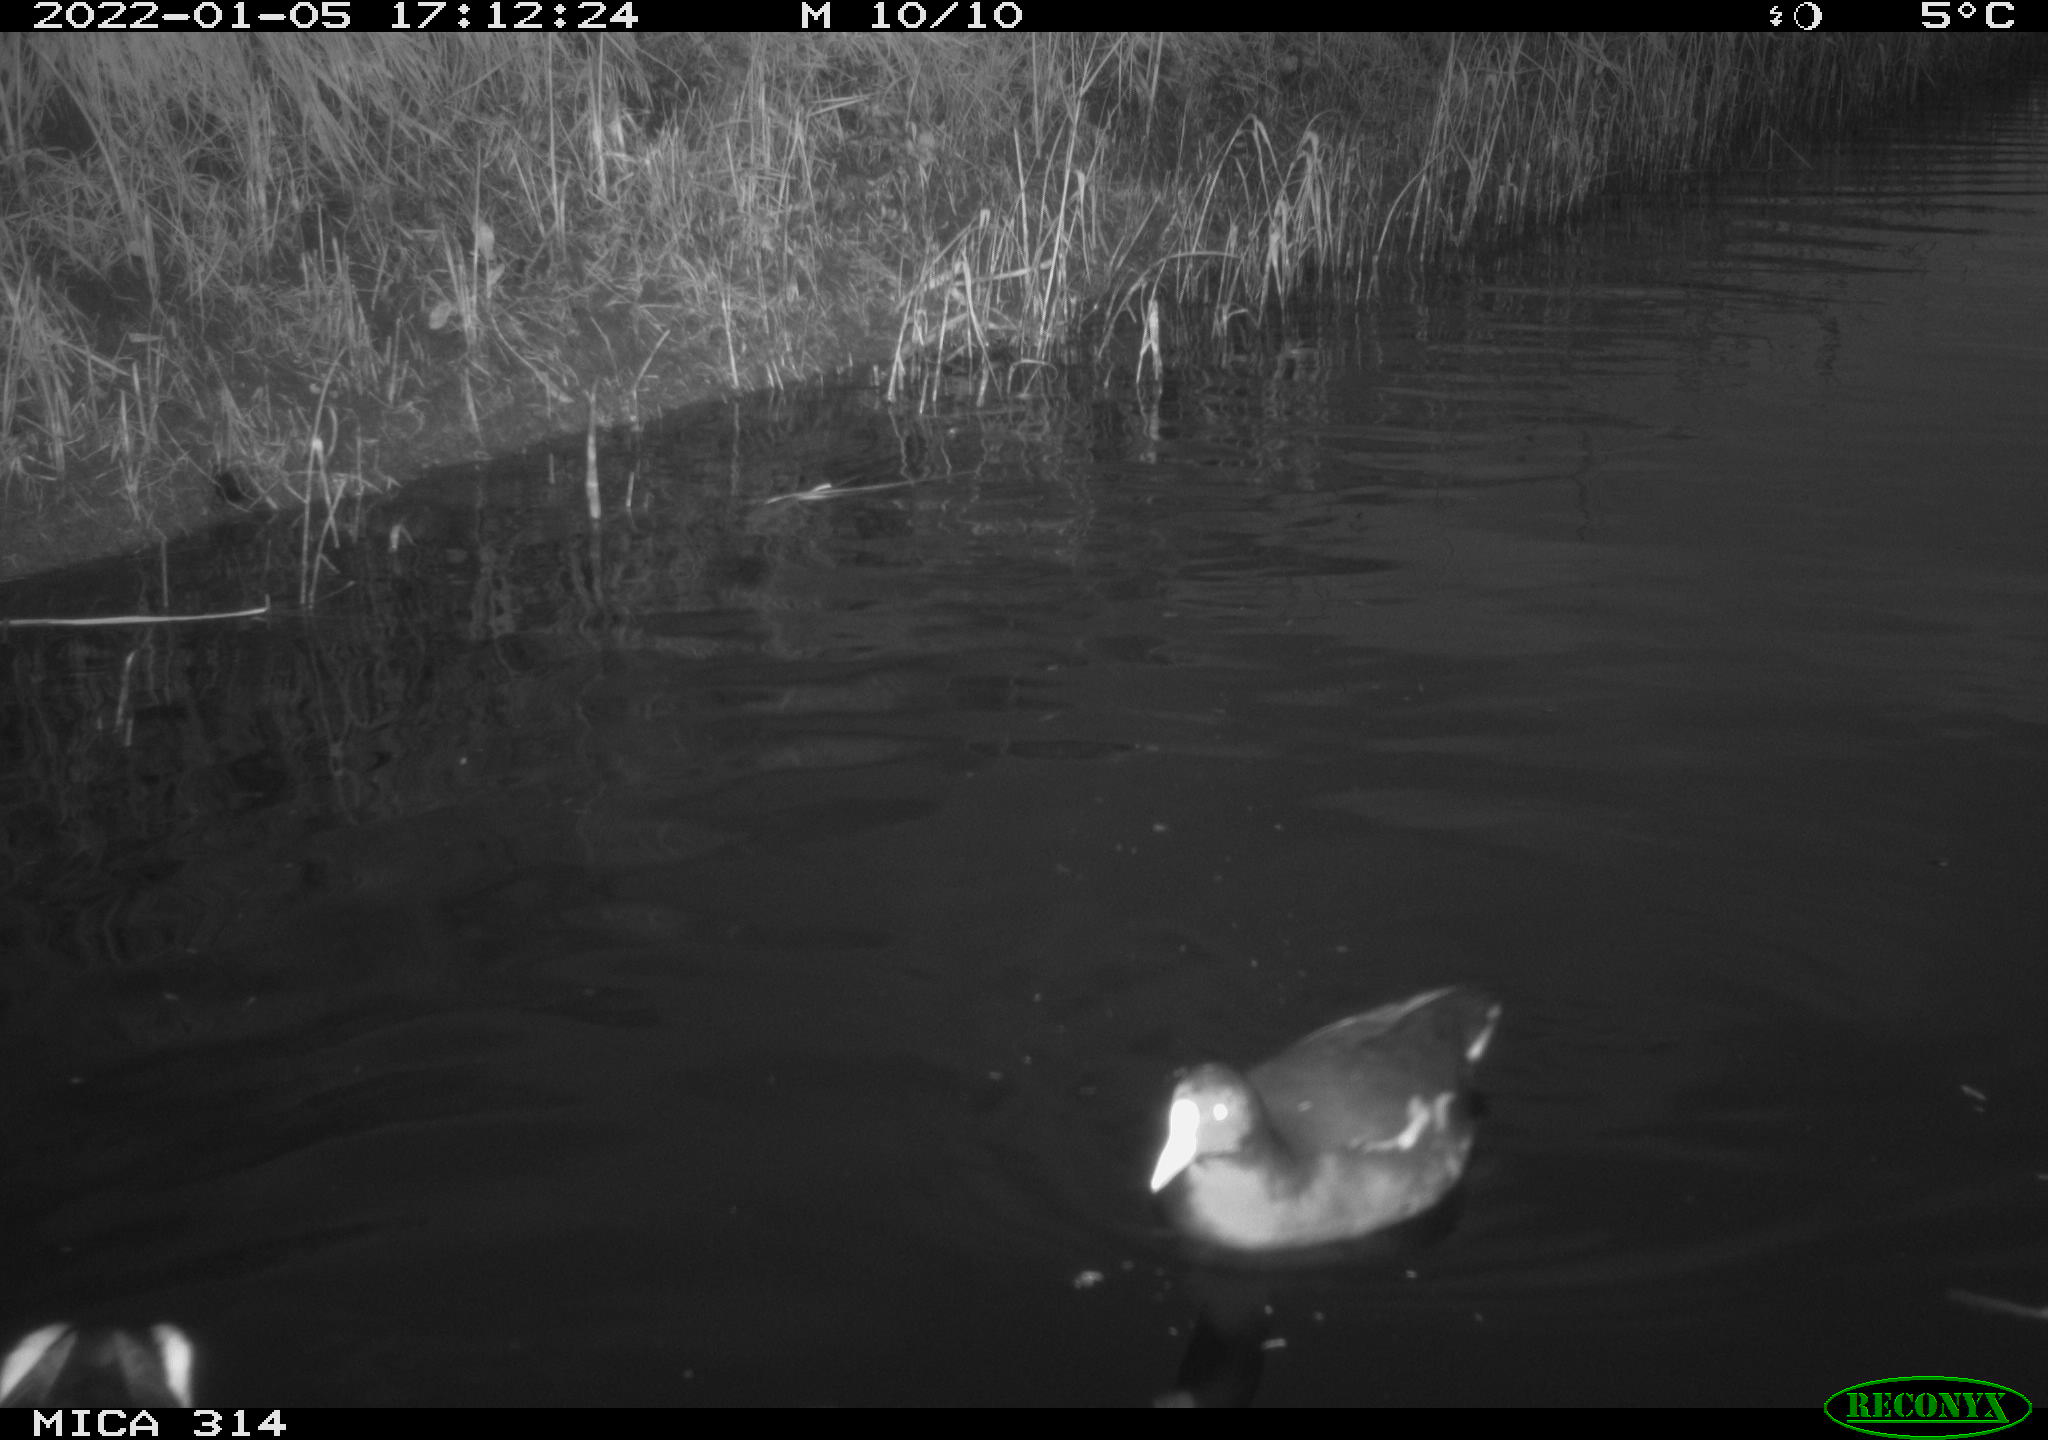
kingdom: Animalia
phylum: Chordata
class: Aves
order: Gruiformes
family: Rallidae
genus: Gallinula
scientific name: Gallinula chloropus
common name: Common moorhen
